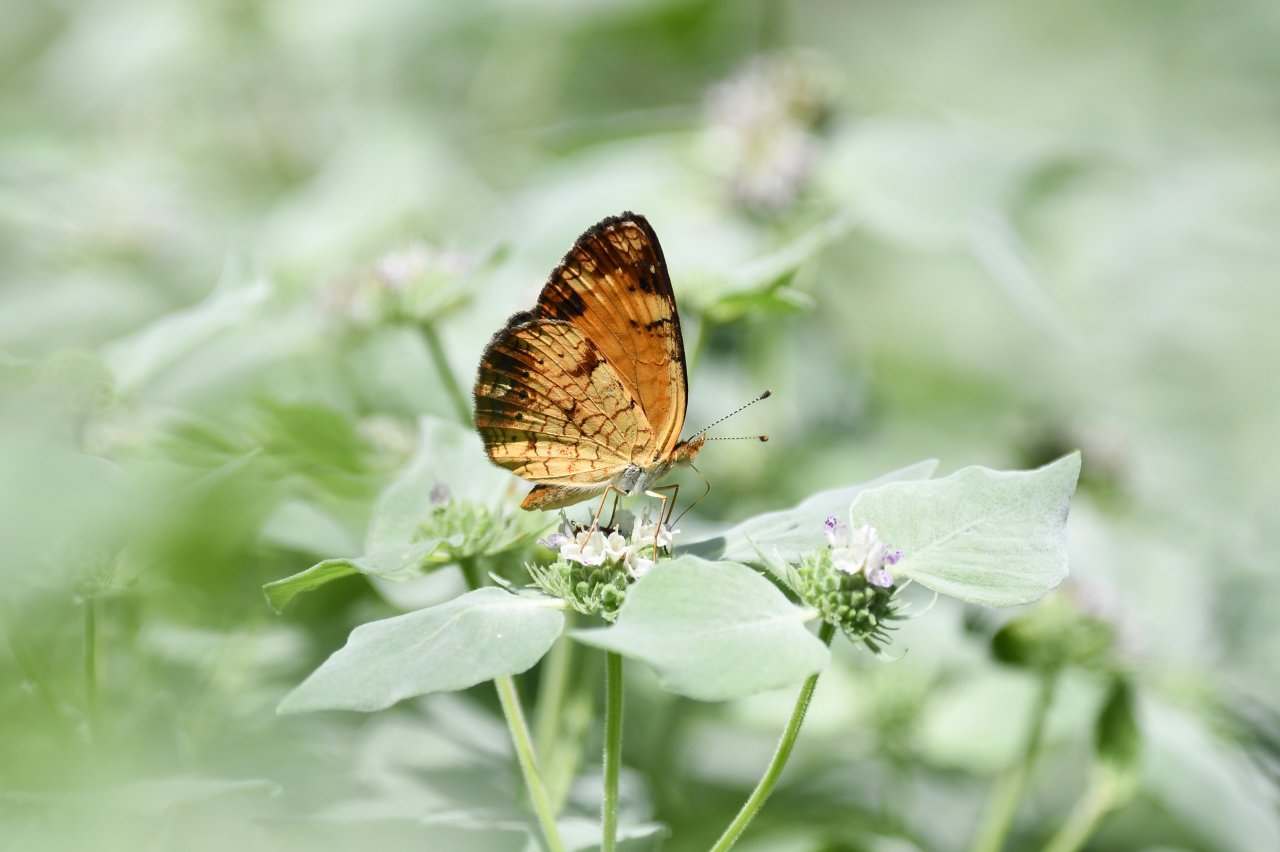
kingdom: Animalia
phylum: Arthropoda
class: Insecta
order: Lepidoptera
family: Nymphalidae
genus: Phyciodes
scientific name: Phyciodes tharos
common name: Pearl Crescent
